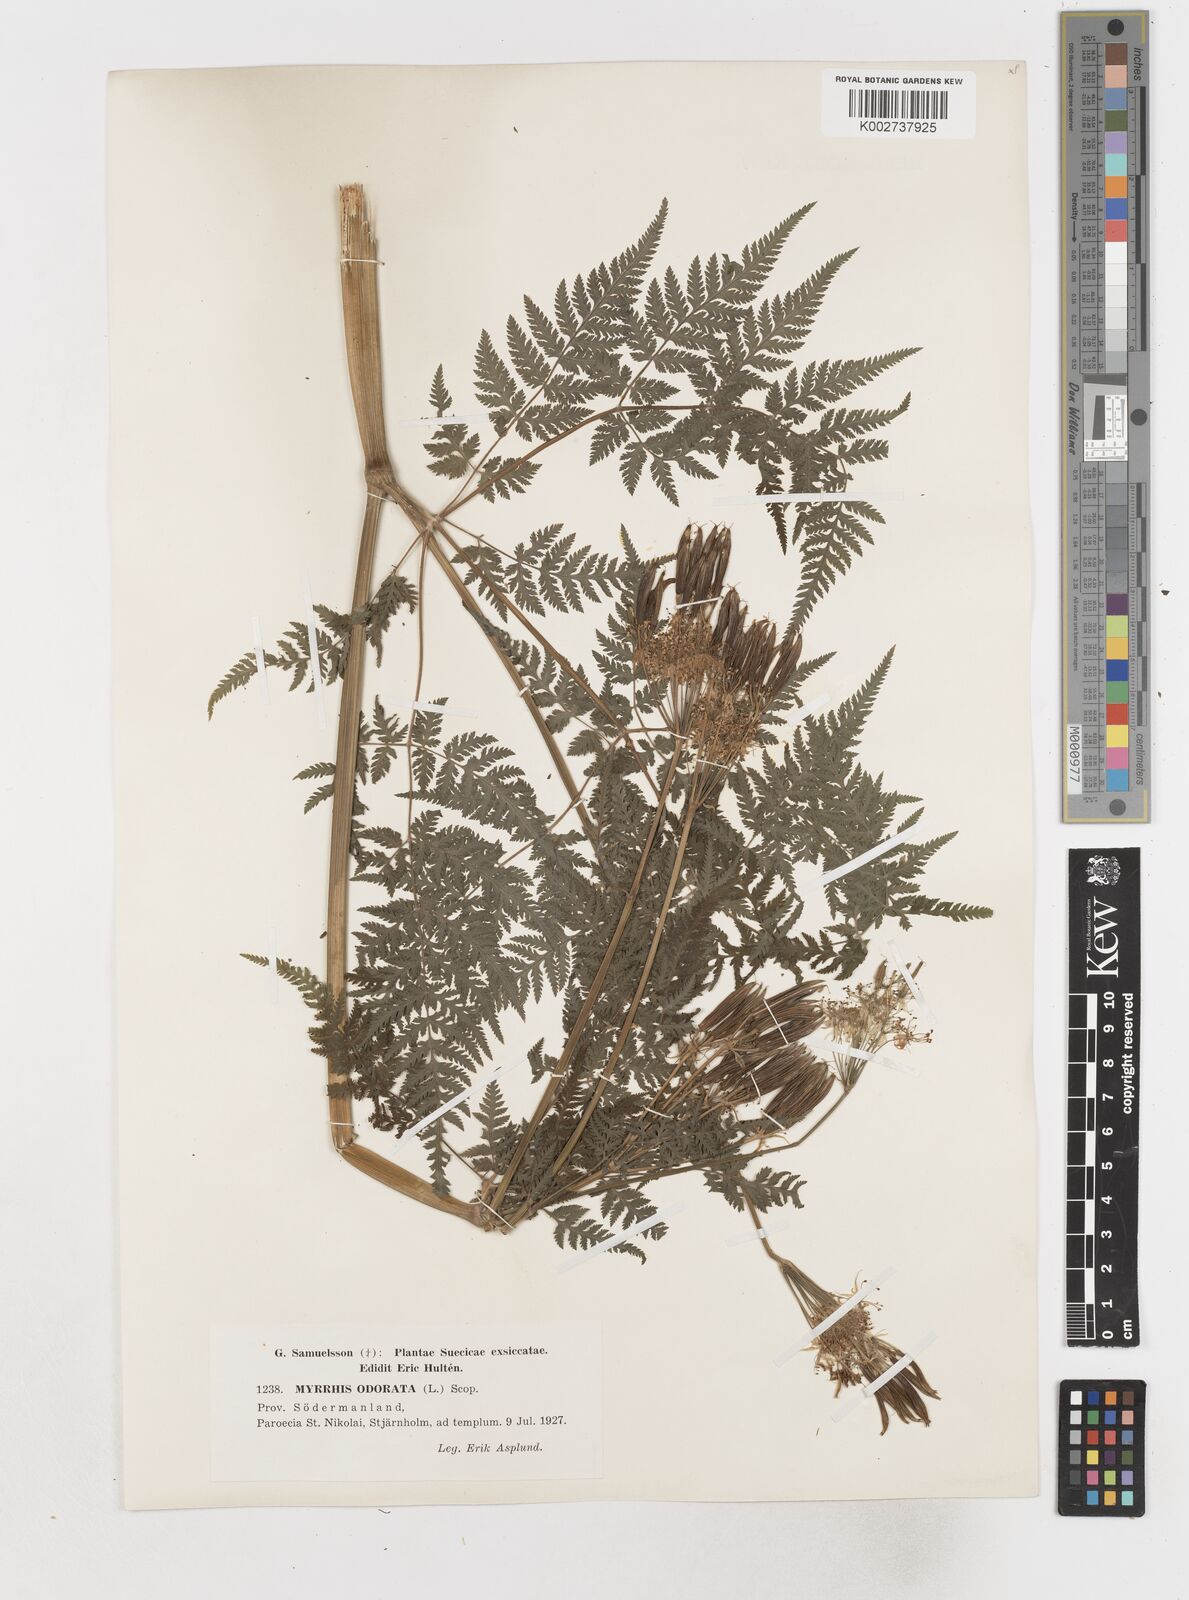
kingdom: Plantae
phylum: Tracheophyta
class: Magnoliopsida
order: Apiales
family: Apiaceae
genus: Myrrhis
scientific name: Myrrhis odorata
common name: Sweet cicely
